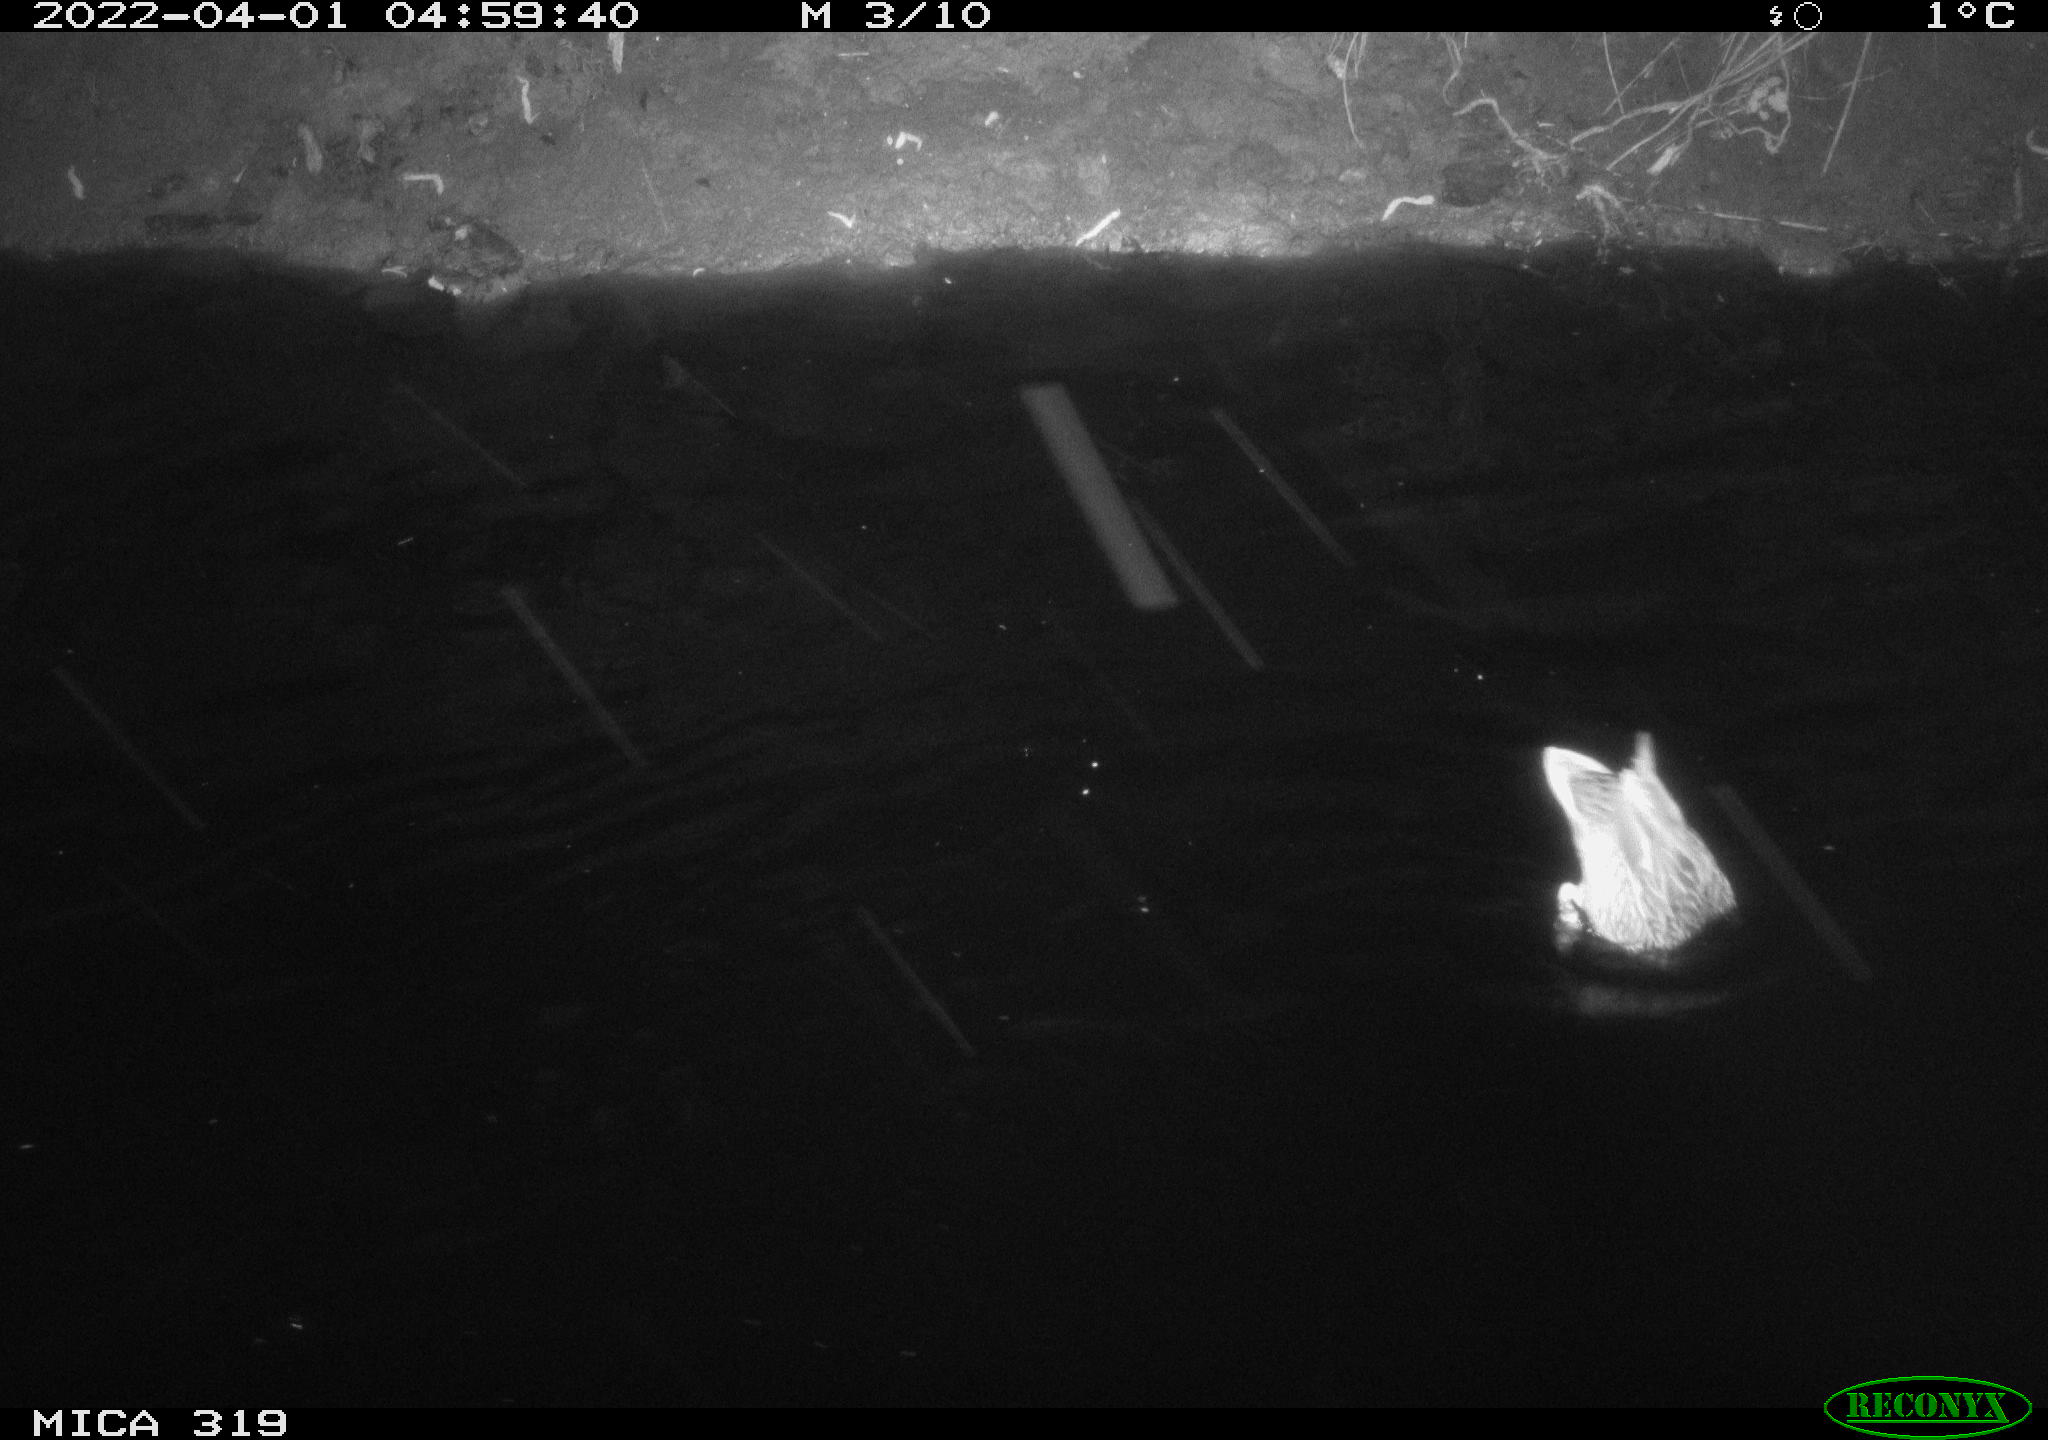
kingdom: Animalia
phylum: Chordata
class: Aves
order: Anseriformes
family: Anatidae
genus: Anas
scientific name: Anas platyrhynchos
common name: Mallard
